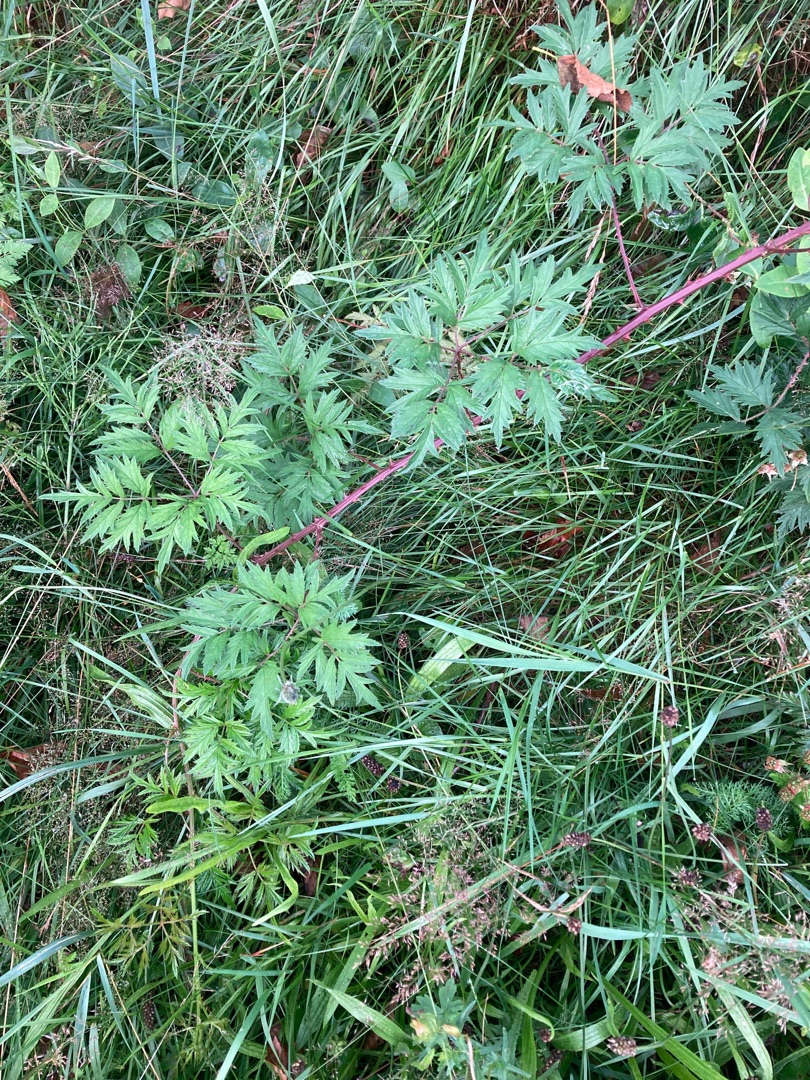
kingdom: Plantae
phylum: Tracheophyta
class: Magnoliopsida
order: Rosales
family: Rosaceae
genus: Rubus
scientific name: Rubus laciniatus
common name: Fliget brombær
